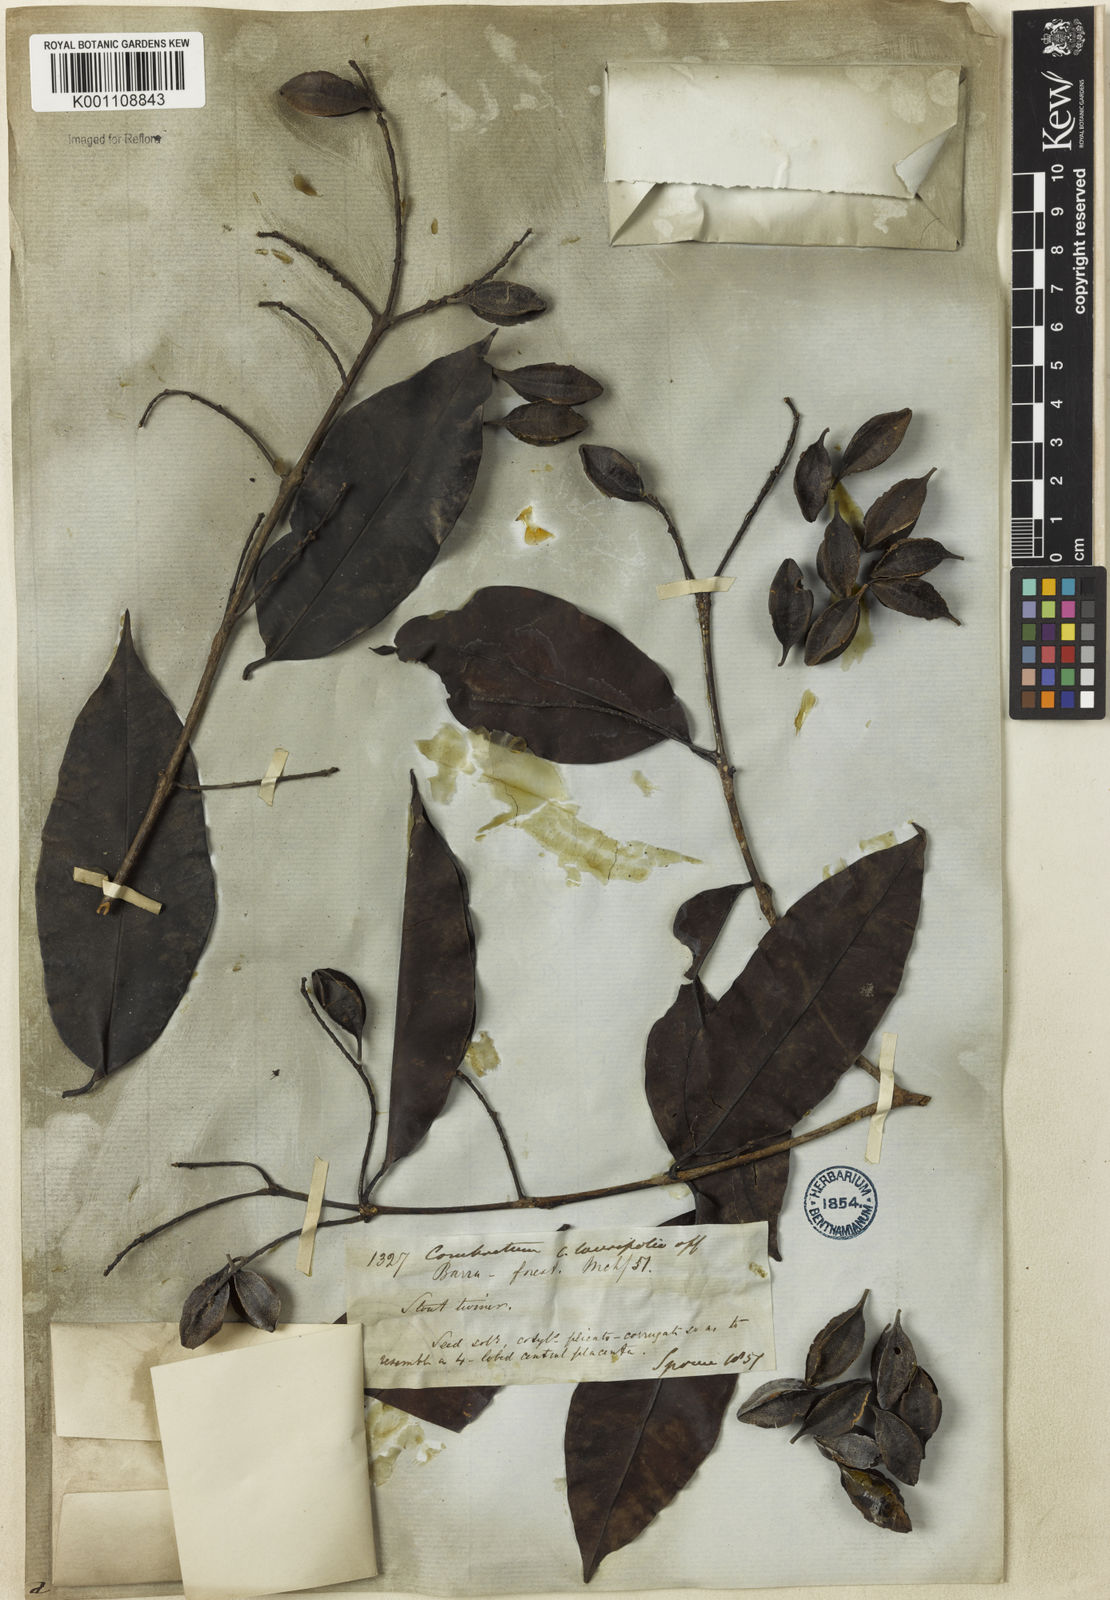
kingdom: Plantae
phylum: Tracheophyta
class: Magnoliopsida
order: Myrtales
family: Combretaceae
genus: Combretum
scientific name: Combretum
